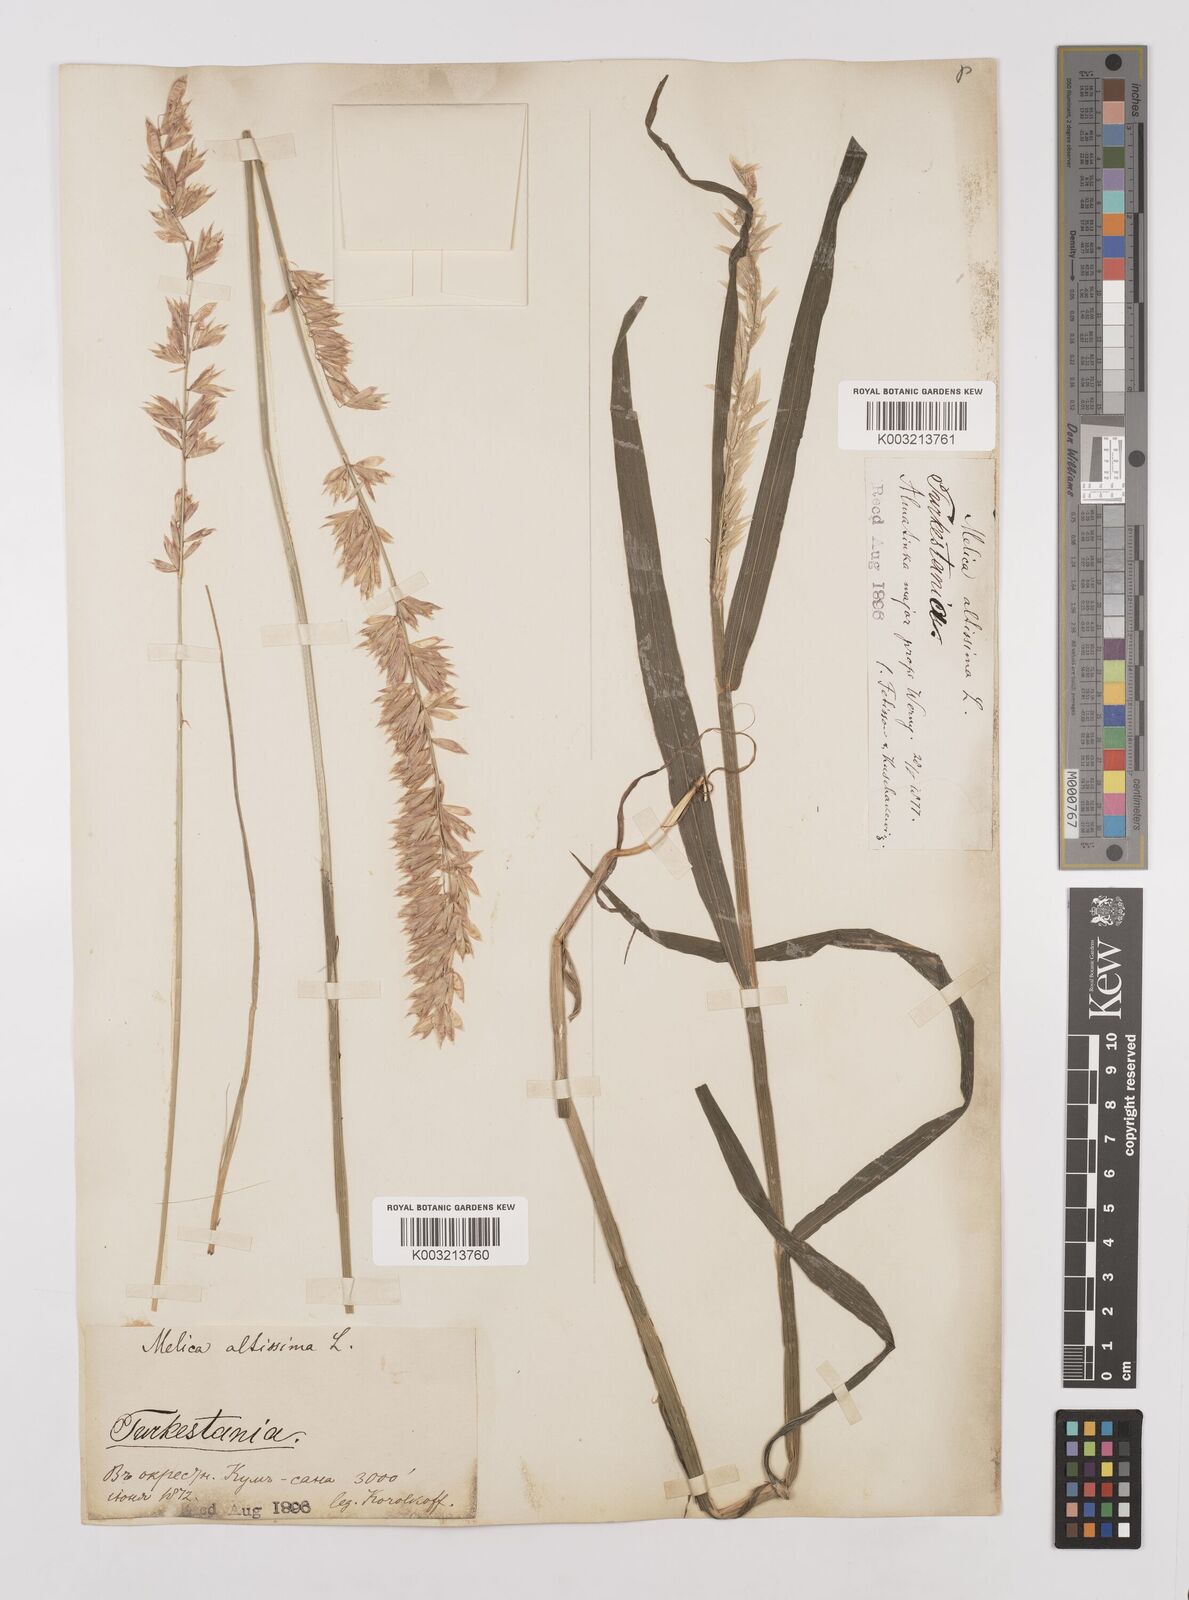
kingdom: Plantae
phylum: Tracheophyta
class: Liliopsida
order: Poales
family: Poaceae
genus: Melica
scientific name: Melica
